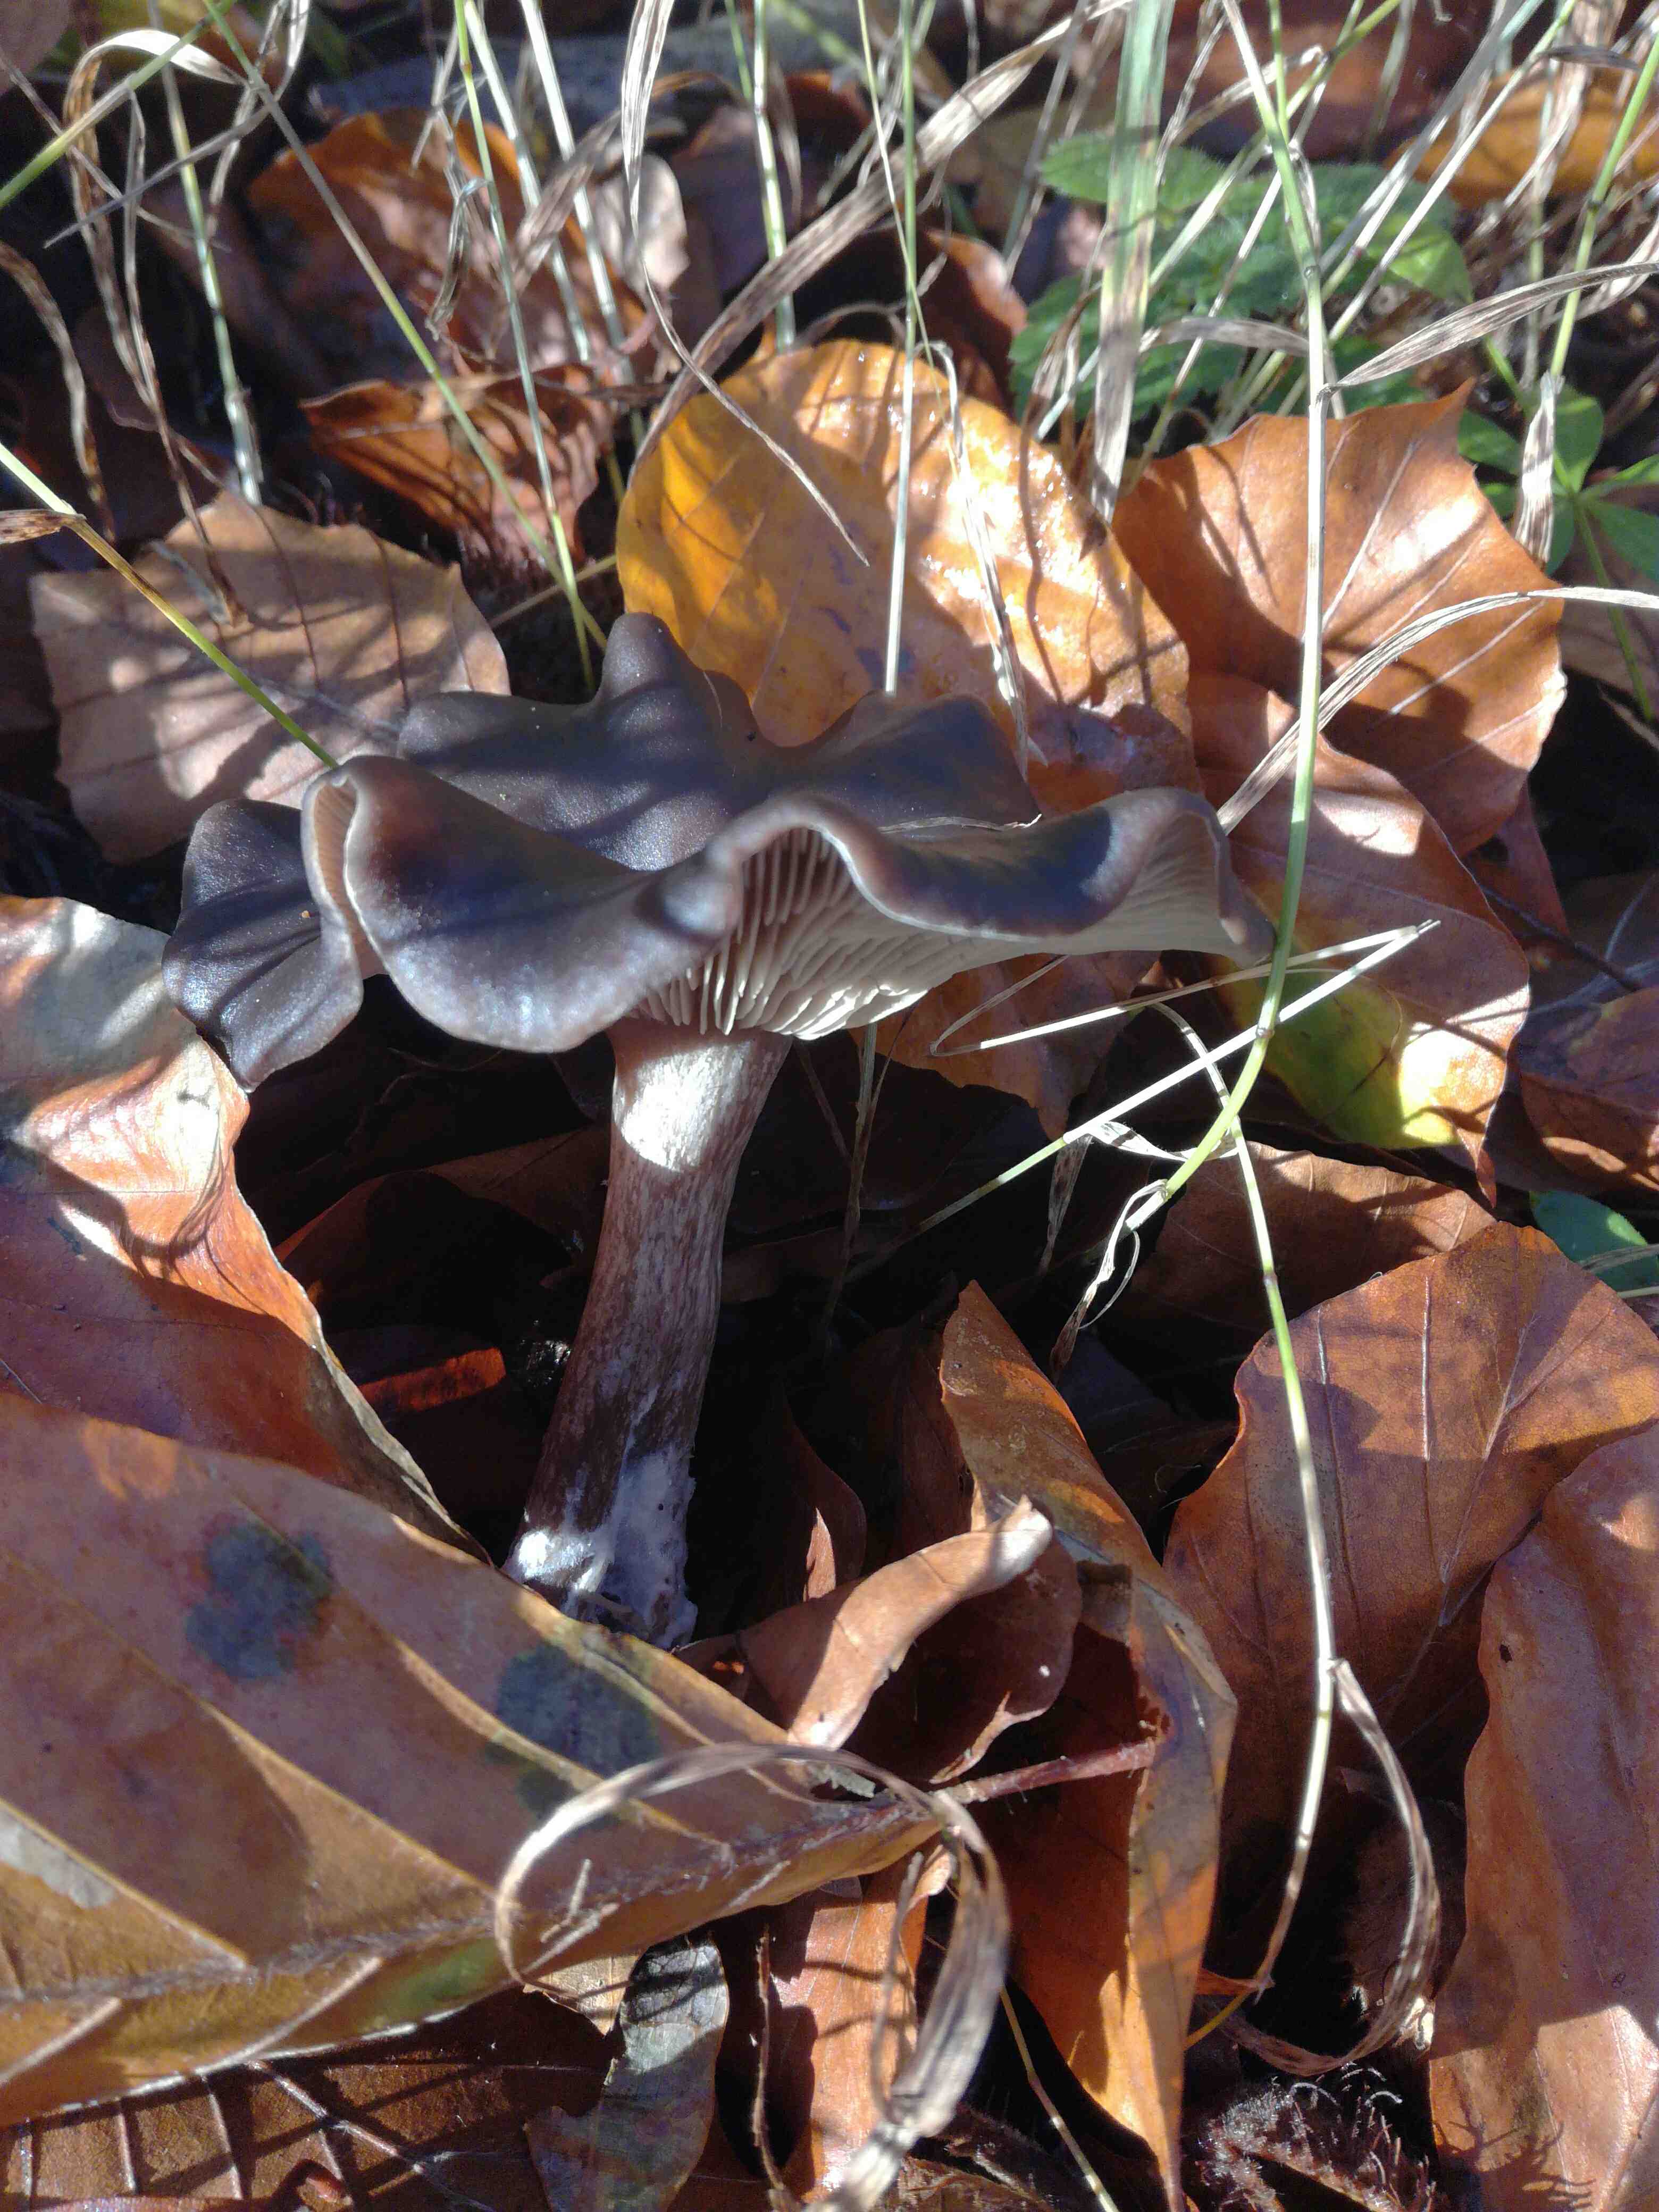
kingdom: Fungi
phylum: Basidiomycota
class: Agaricomycetes
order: Agaricales
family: Pseudoclitocybaceae
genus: Pseudoclitocybe
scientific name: Pseudoclitocybe cyathiformis
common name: almindelig bægertragthat
